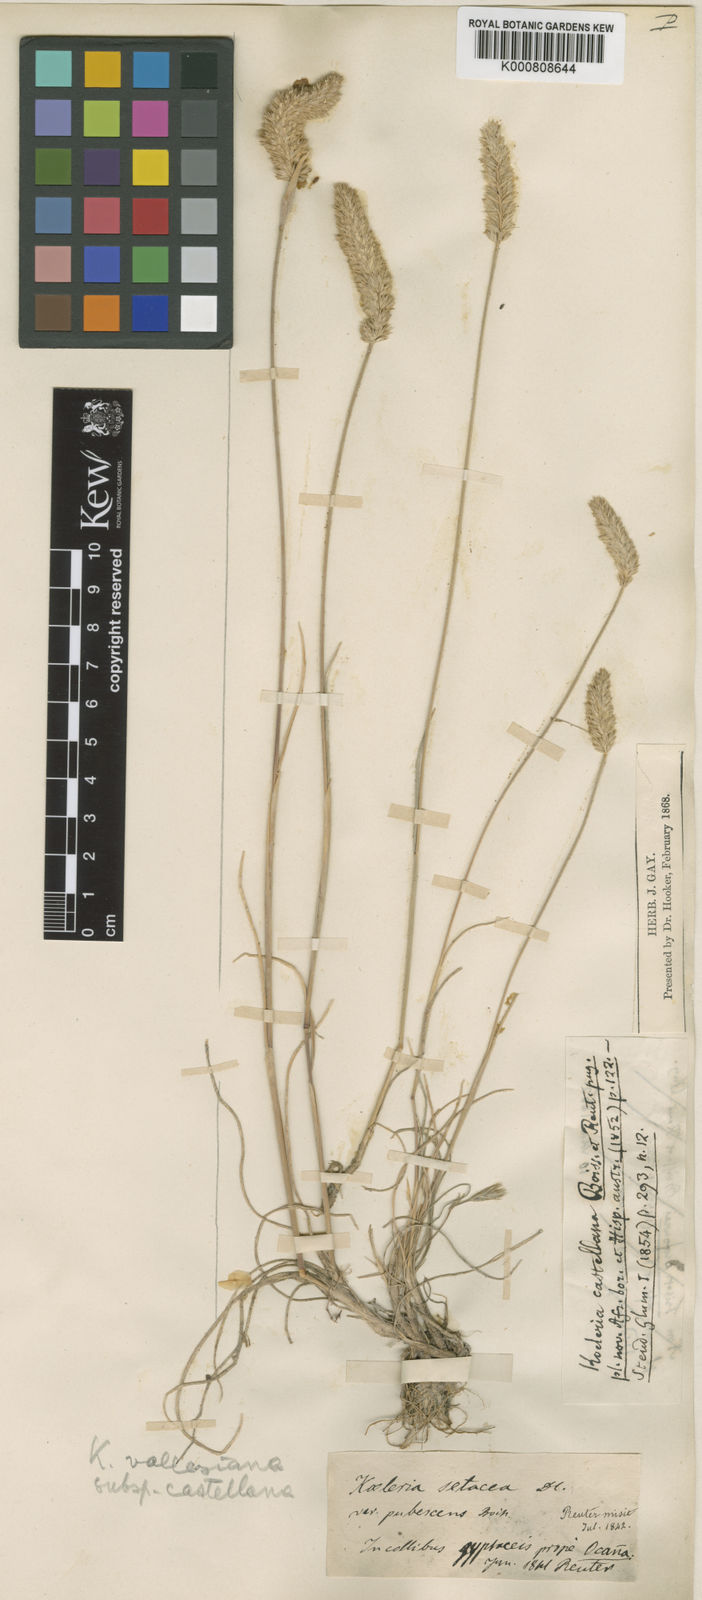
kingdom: Plantae
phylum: Tracheophyta
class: Liliopsida
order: Poales
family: Poaceae
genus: Koeleria
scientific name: Koeleria
